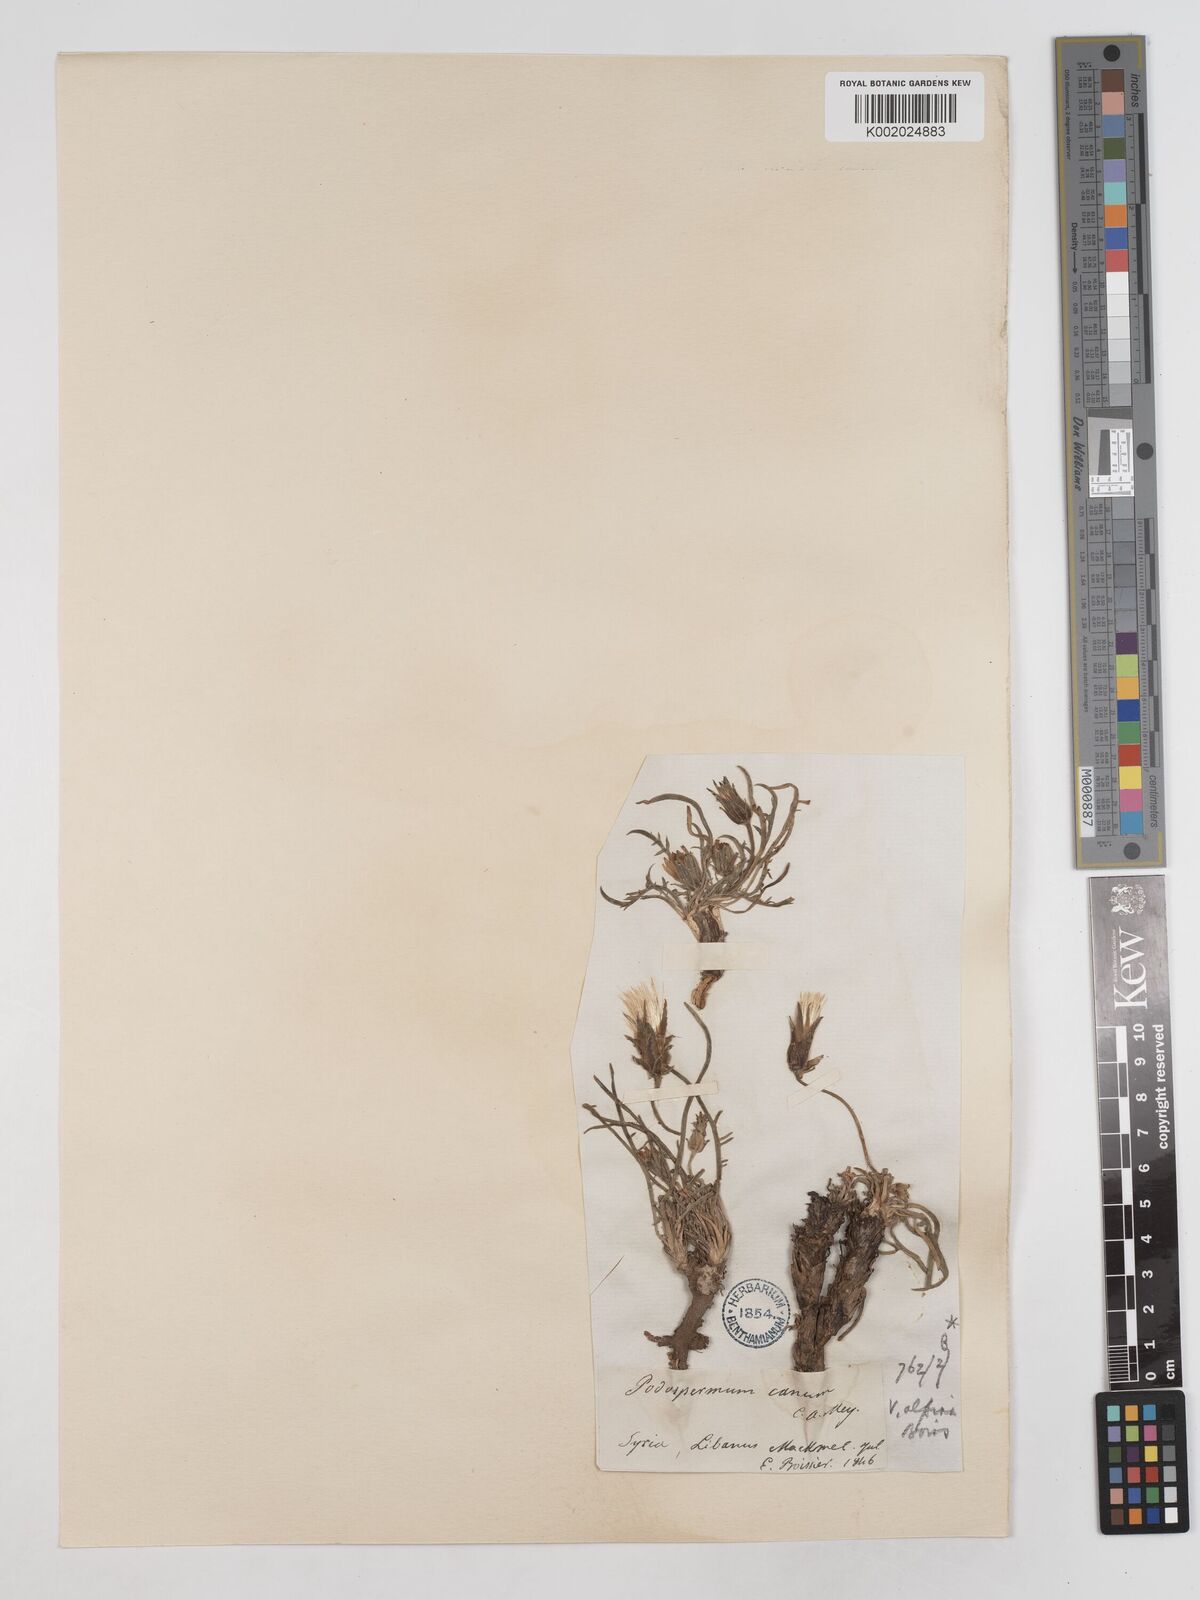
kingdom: Plantae
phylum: Tracheophyta
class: Magnoliopsida
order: Asterales
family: Asteraceae
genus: Scorzonera
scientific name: Scorzonera cana
